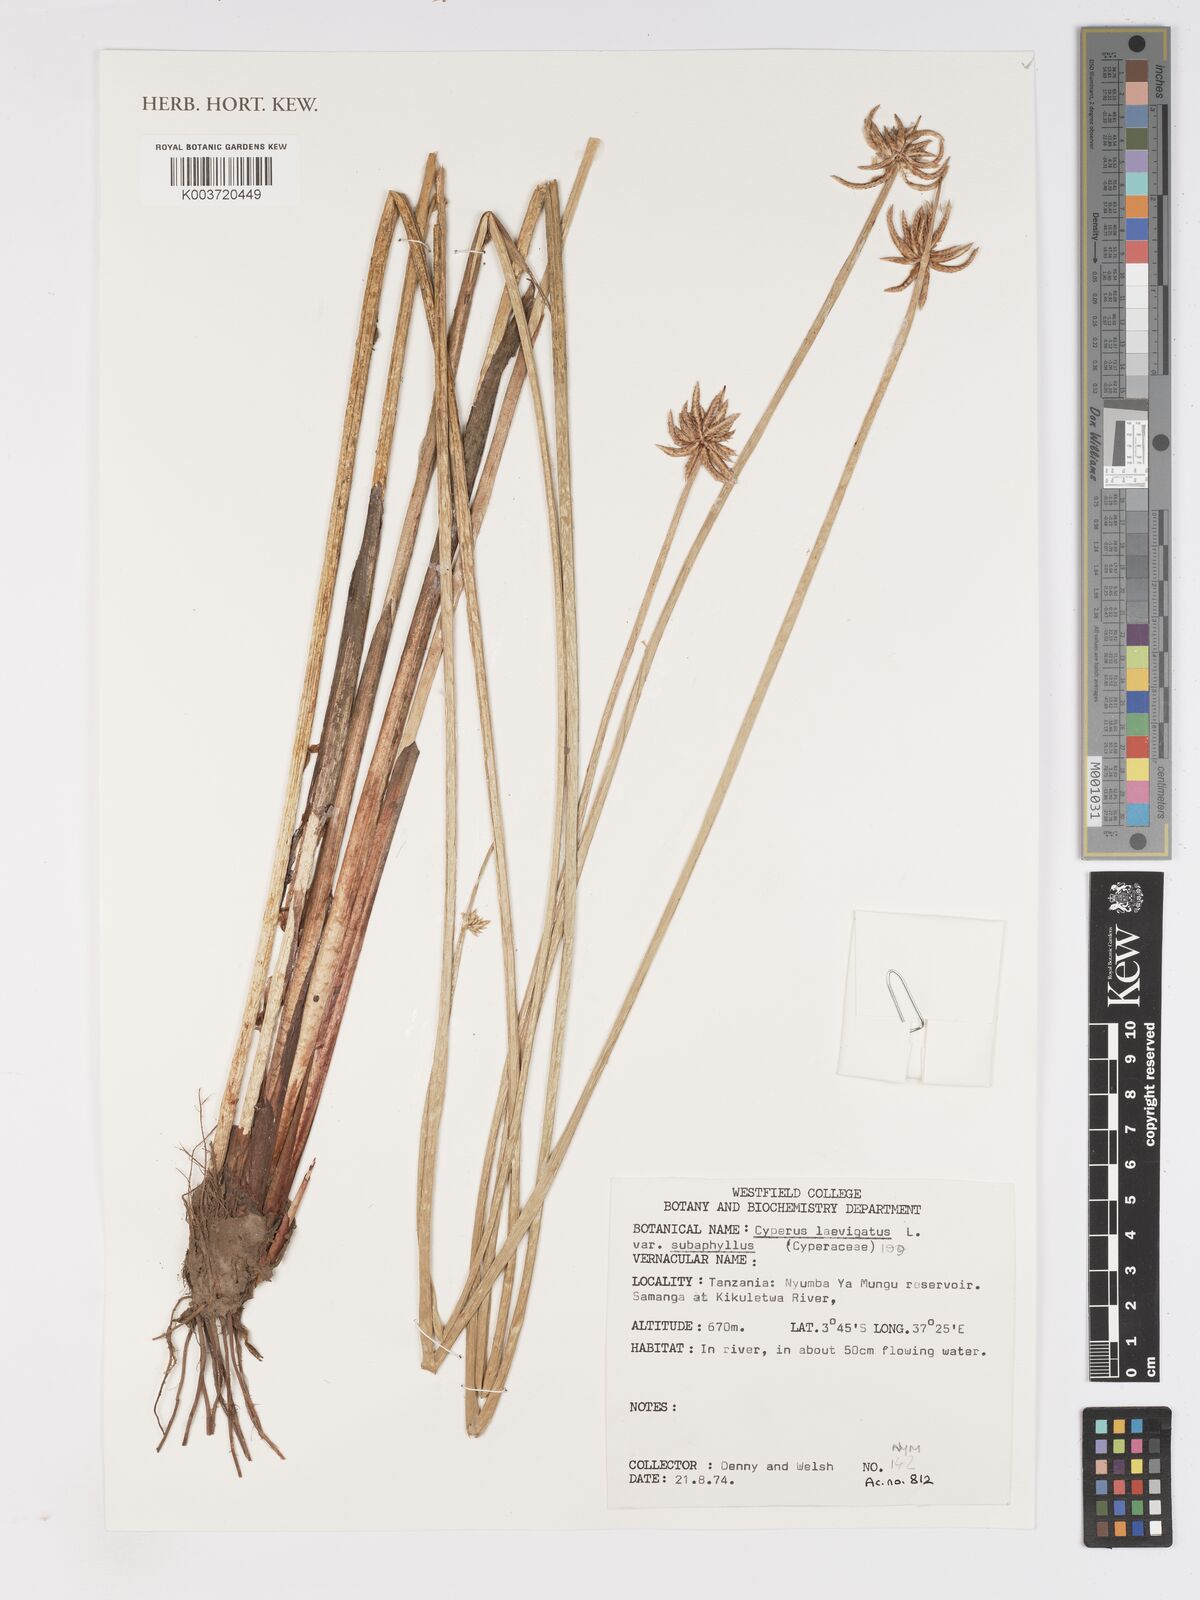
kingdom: Plantae
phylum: Tracheophyta
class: Liliopsida
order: Poales
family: Cyperaceae
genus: Cyperus
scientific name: Cyperus laevigatus
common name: Smooth flat sedge
